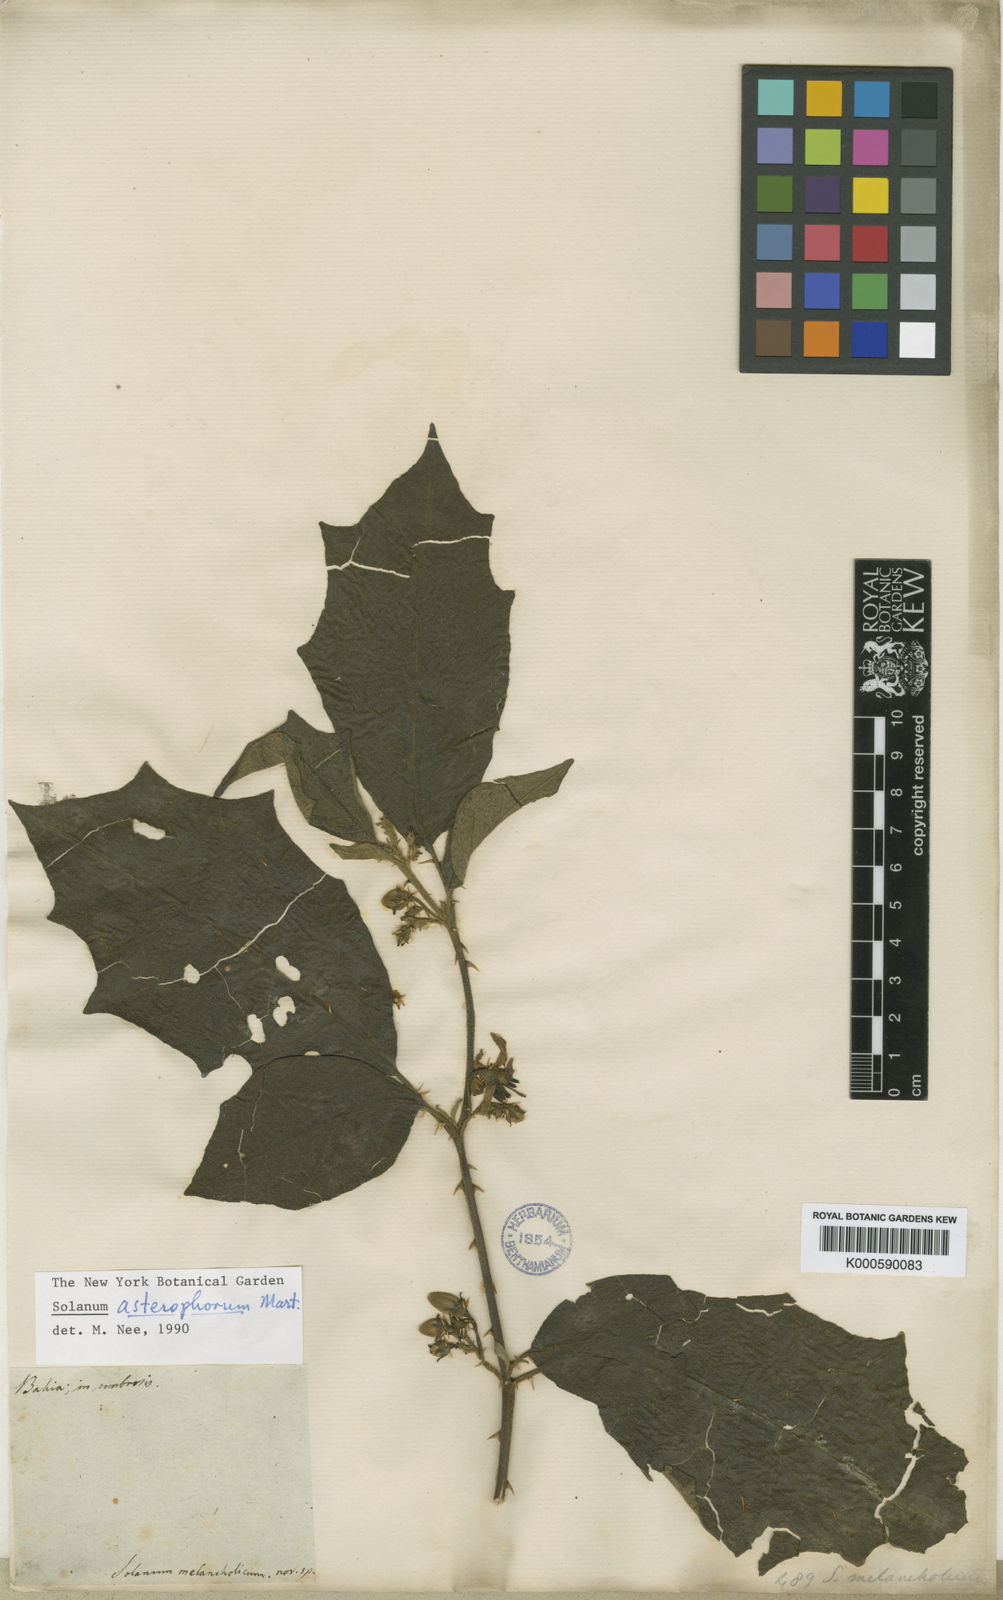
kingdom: Plantae
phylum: Tracheophyta
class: Magnoliopsida
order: Solanales
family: Solanaceae
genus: Solanum
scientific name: Solanum asterophorum
